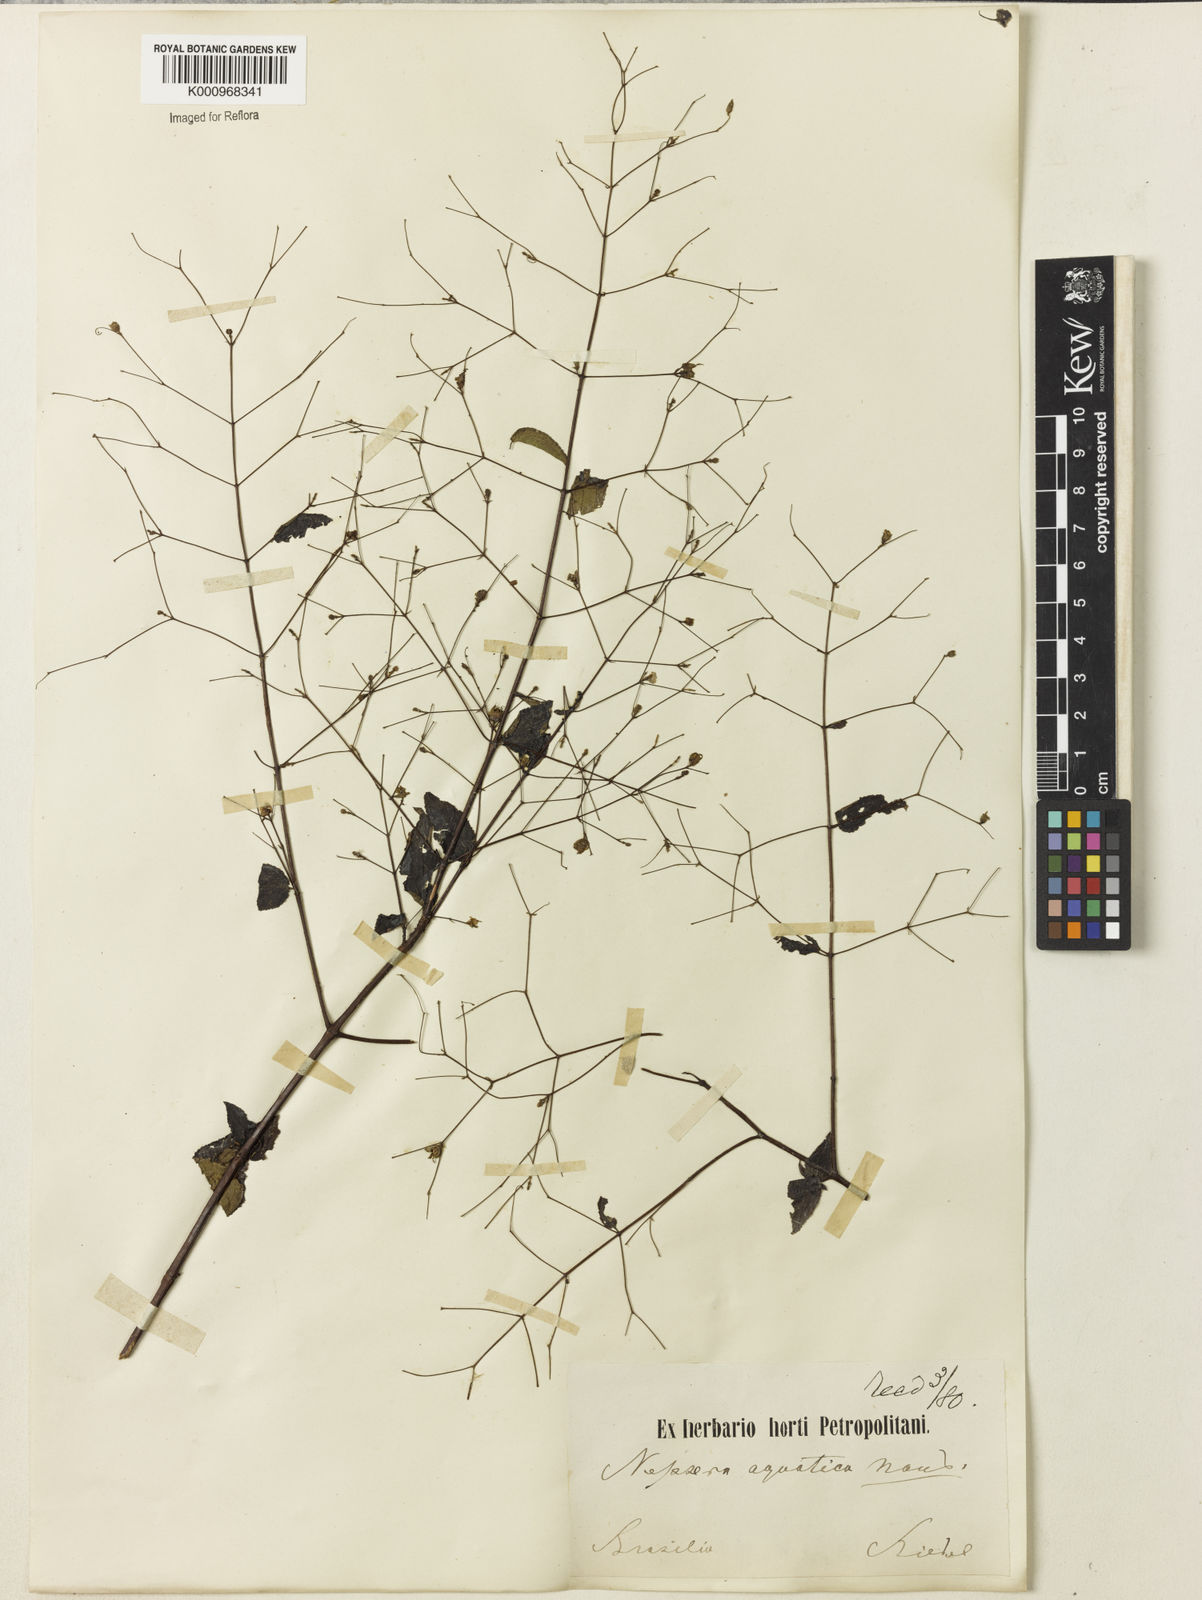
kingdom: Plantae
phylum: Tracheophyta
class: Magnoliopsida
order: Myrtales
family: Melastomataceae
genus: Nepsera
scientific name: Nepsera aquatica
